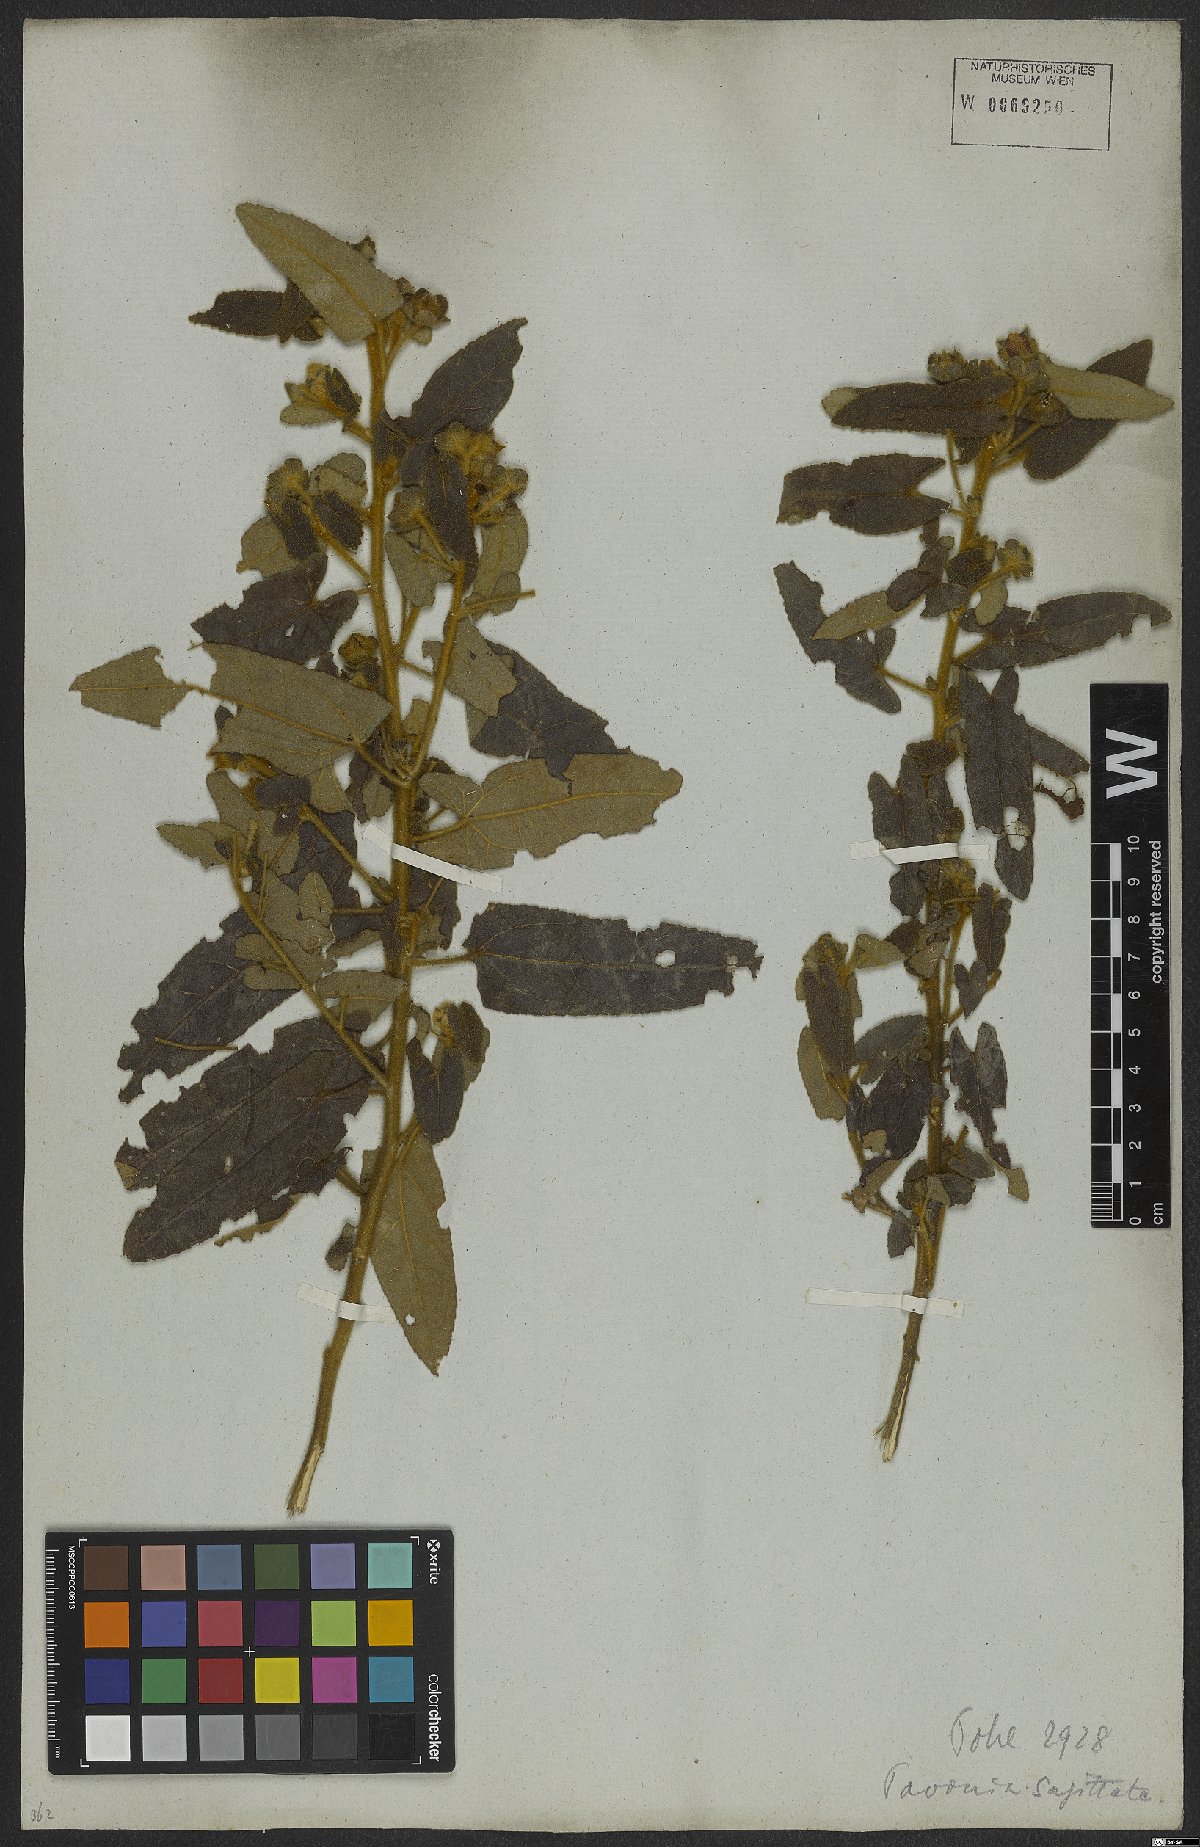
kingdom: Plantae
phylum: Tracheophyta
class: Magnoliopsida
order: Malvales
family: Malvaceae
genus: Pavonia
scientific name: Pavonia sagittata
